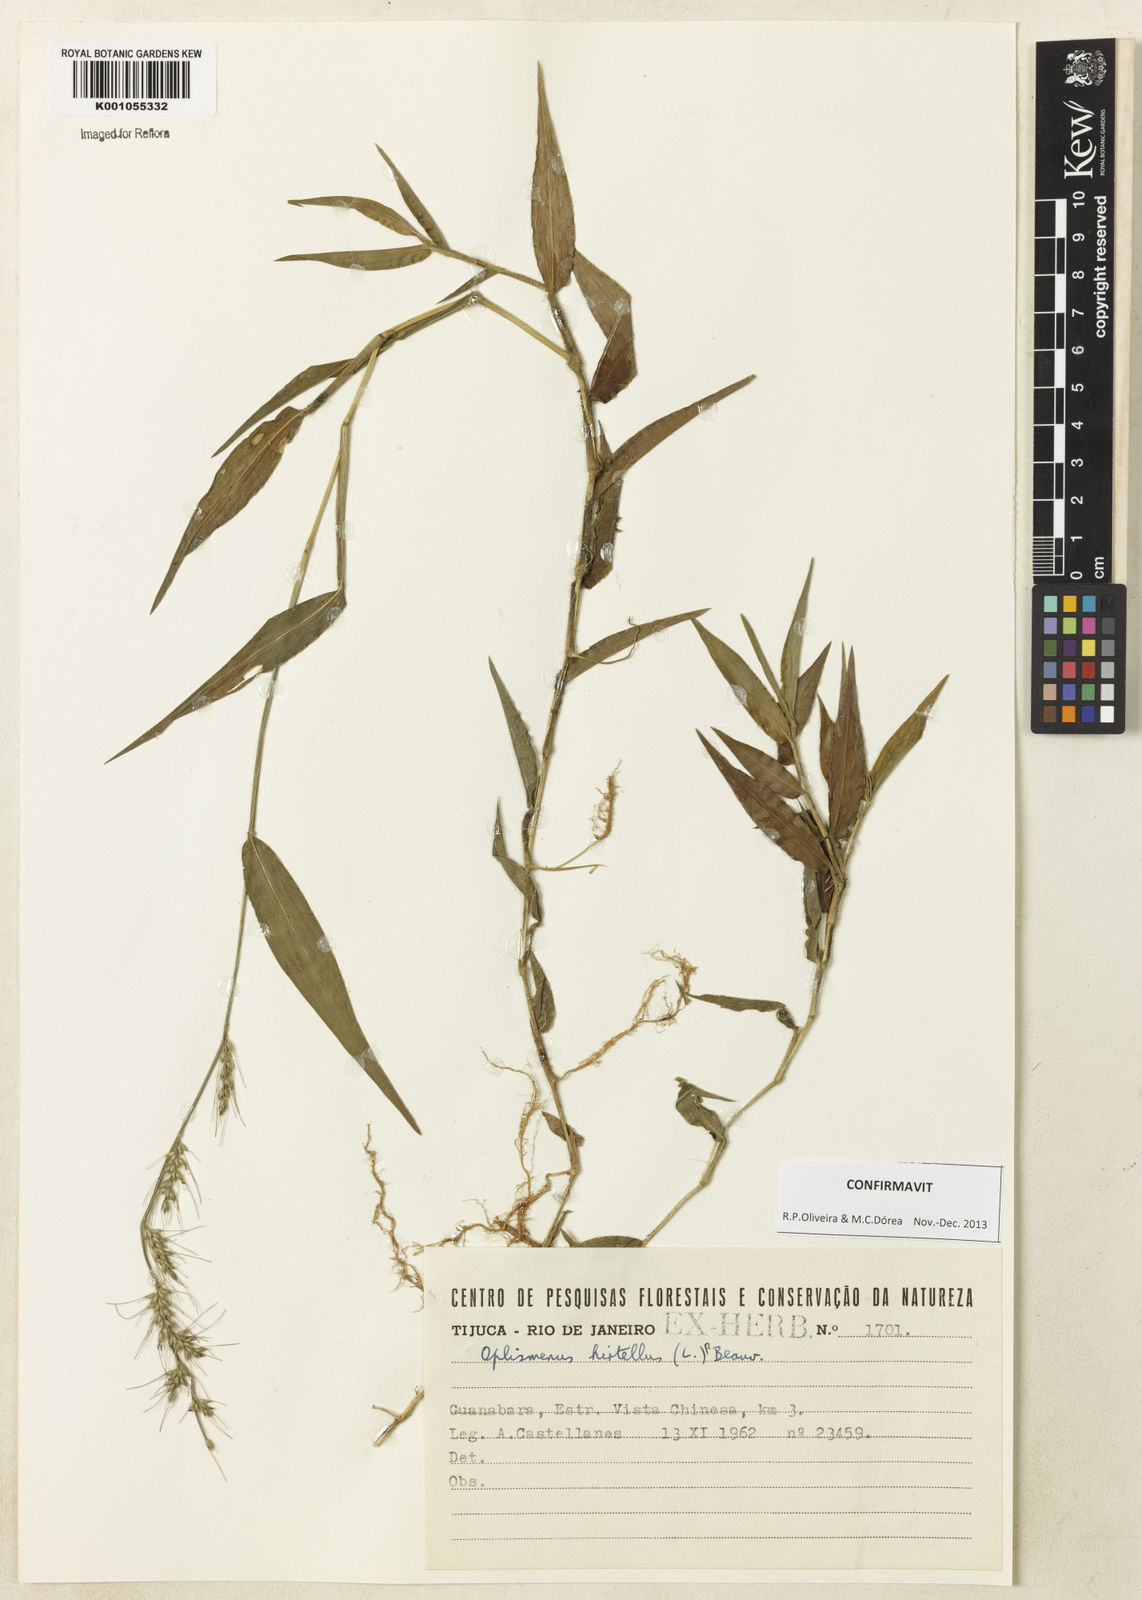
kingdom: Plantae
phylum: Tracheophyta
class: Liliopsida
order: Poales
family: Poaceae
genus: Oplismenus
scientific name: Oplismenus hirtellus
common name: Basketgrass
